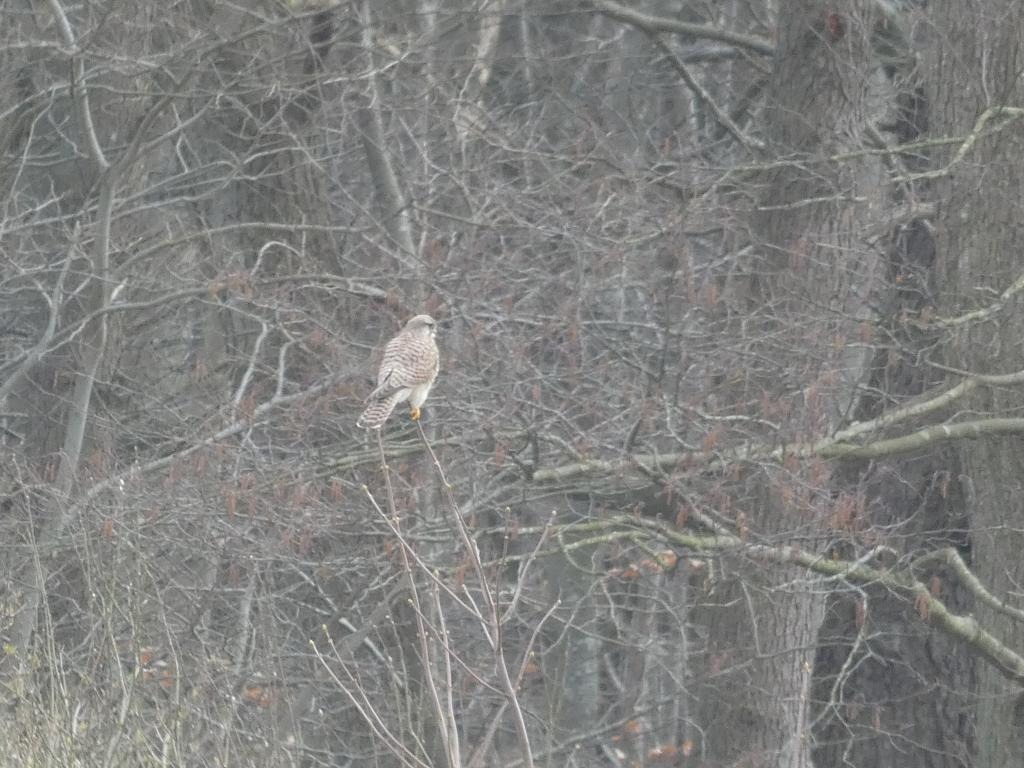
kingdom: Animalia
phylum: Chordata
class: Aves
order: Falconiformes
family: Falconidae
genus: Falco
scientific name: Falco tinnunculus
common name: Tårnfalk
